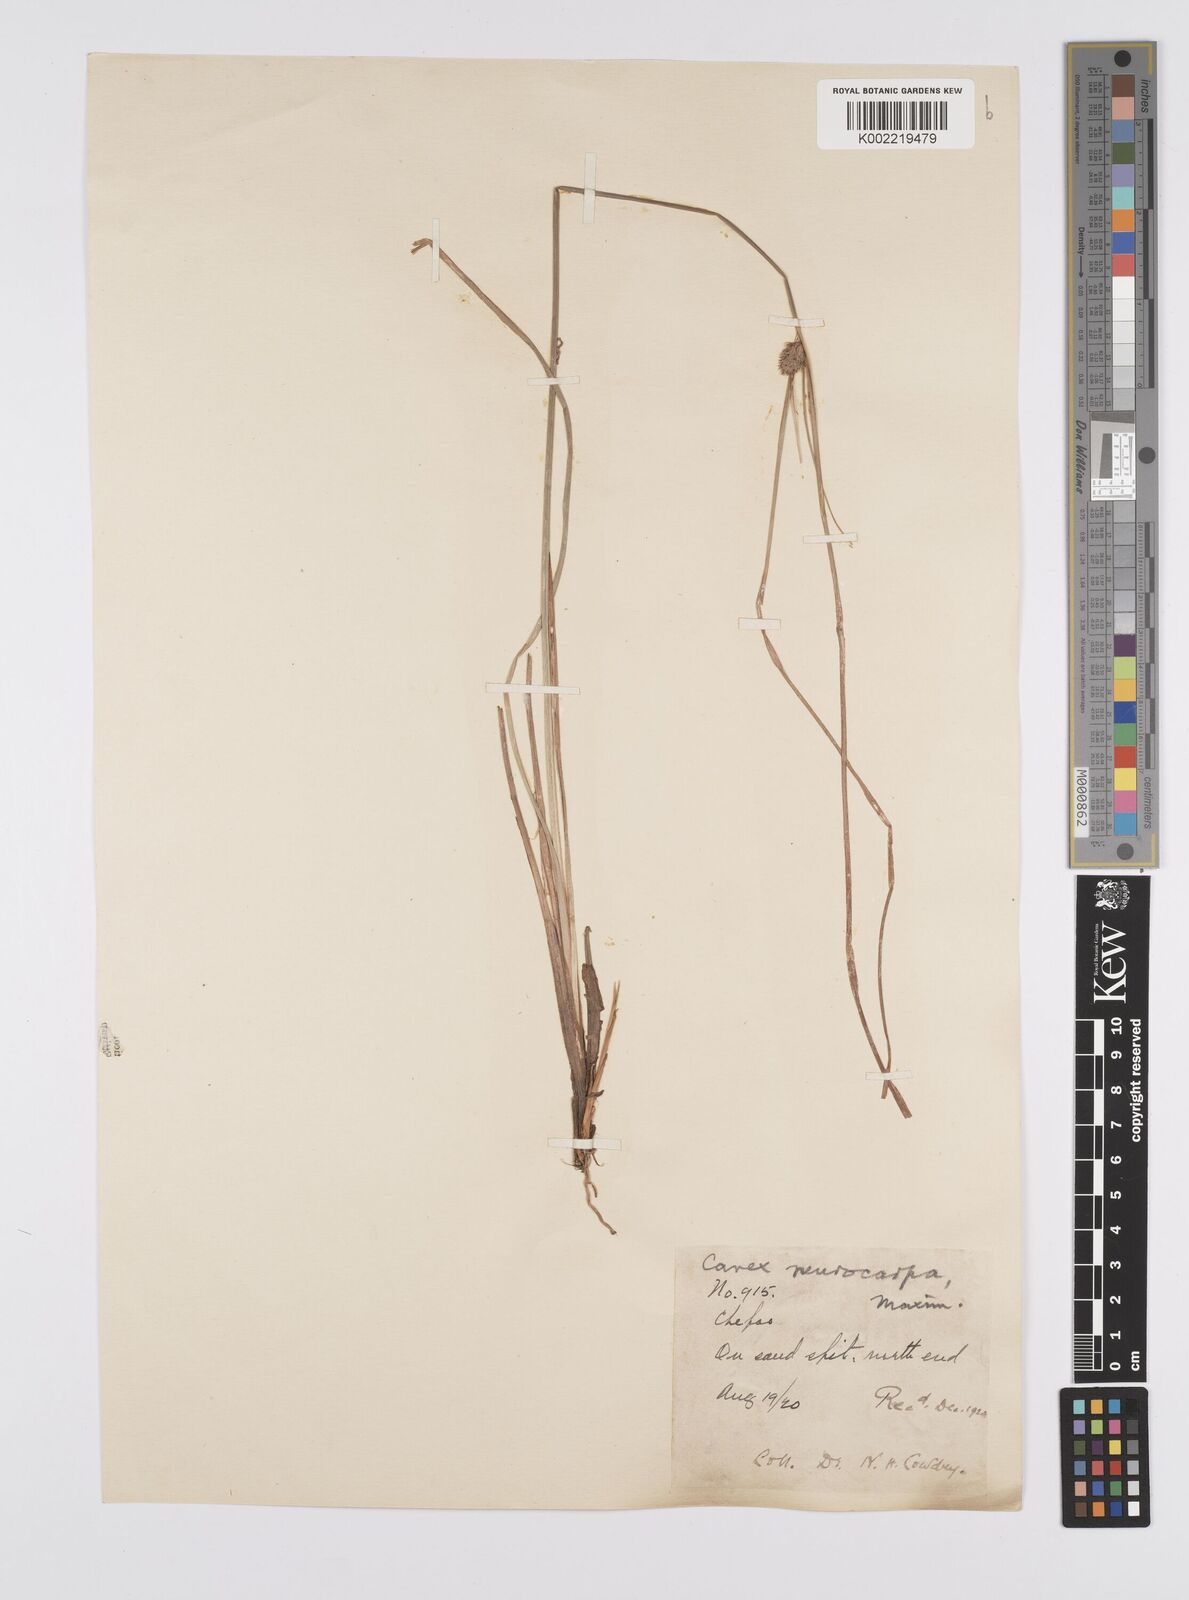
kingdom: Plantae
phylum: Tracheophyta
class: Liliopsida
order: Poales
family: Cyperaceae
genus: Carex
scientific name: Carex neurocarpa
